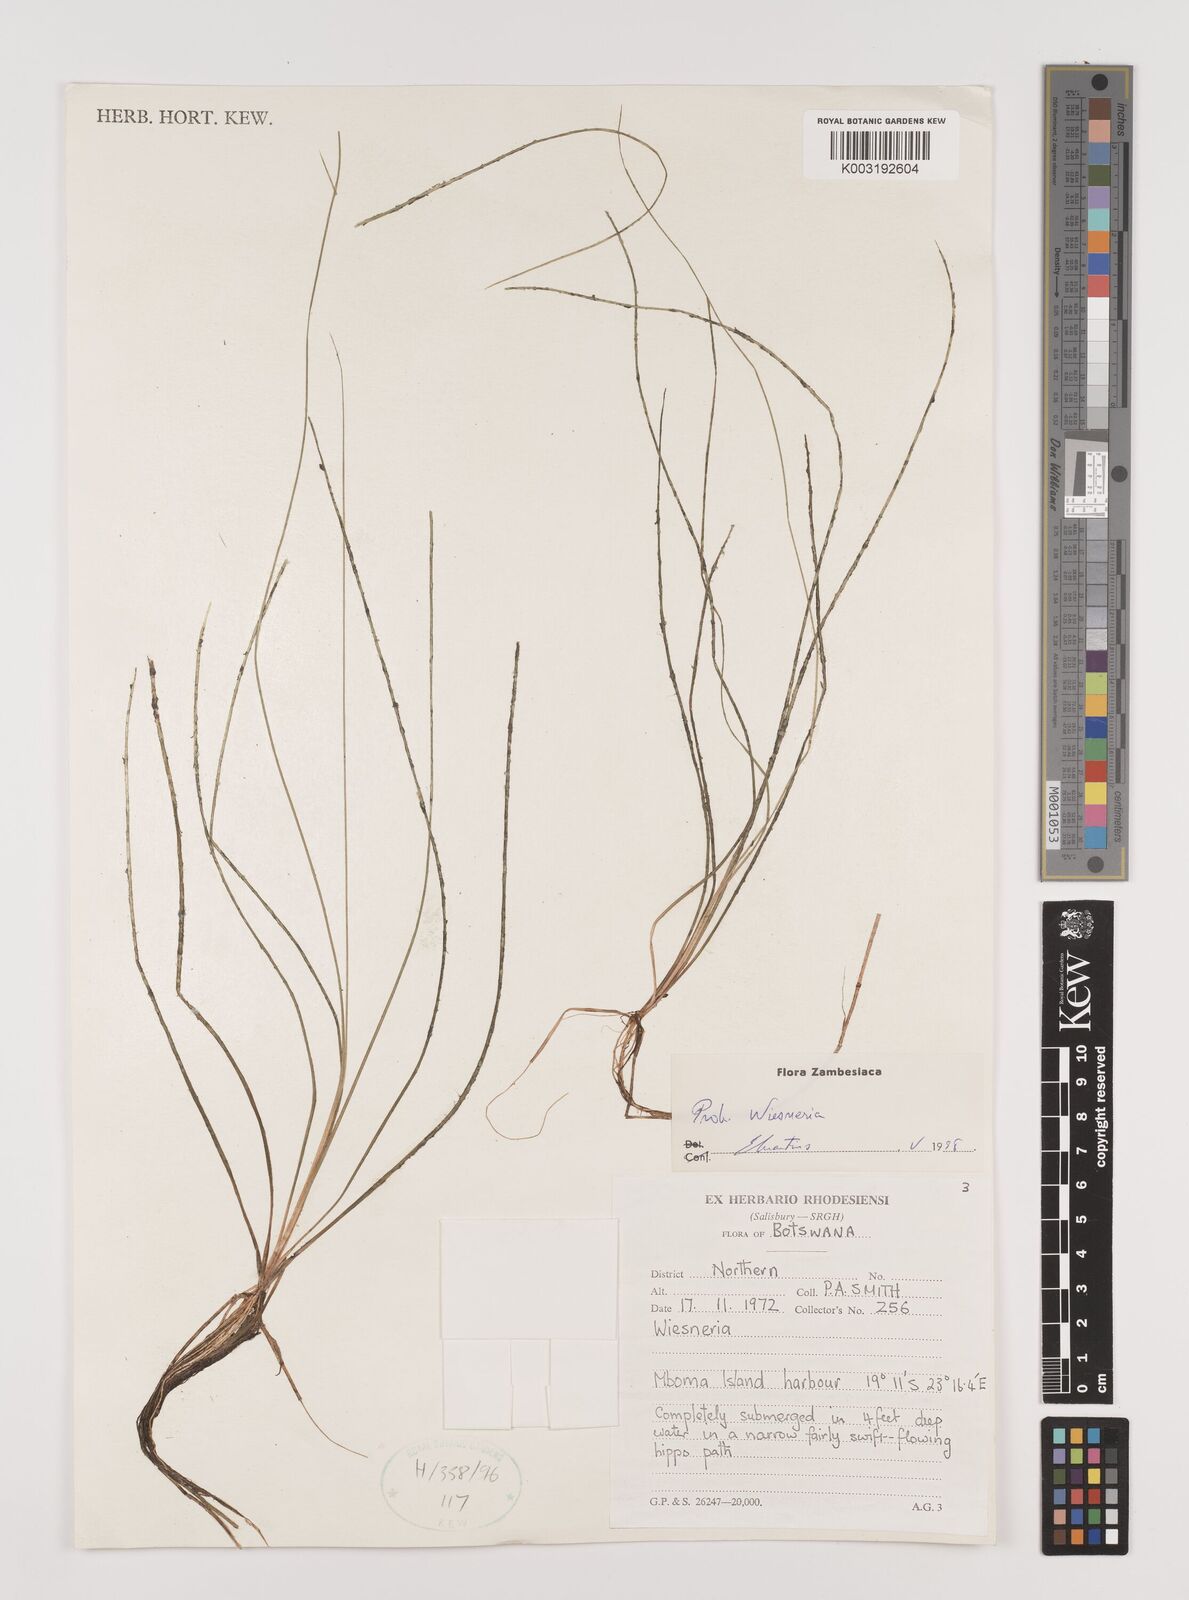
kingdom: Plantae
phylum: Tracheophyta
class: Liliopsida
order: Alismatales
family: Alismataceae
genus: Burnatia
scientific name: Burnatia enneandra
